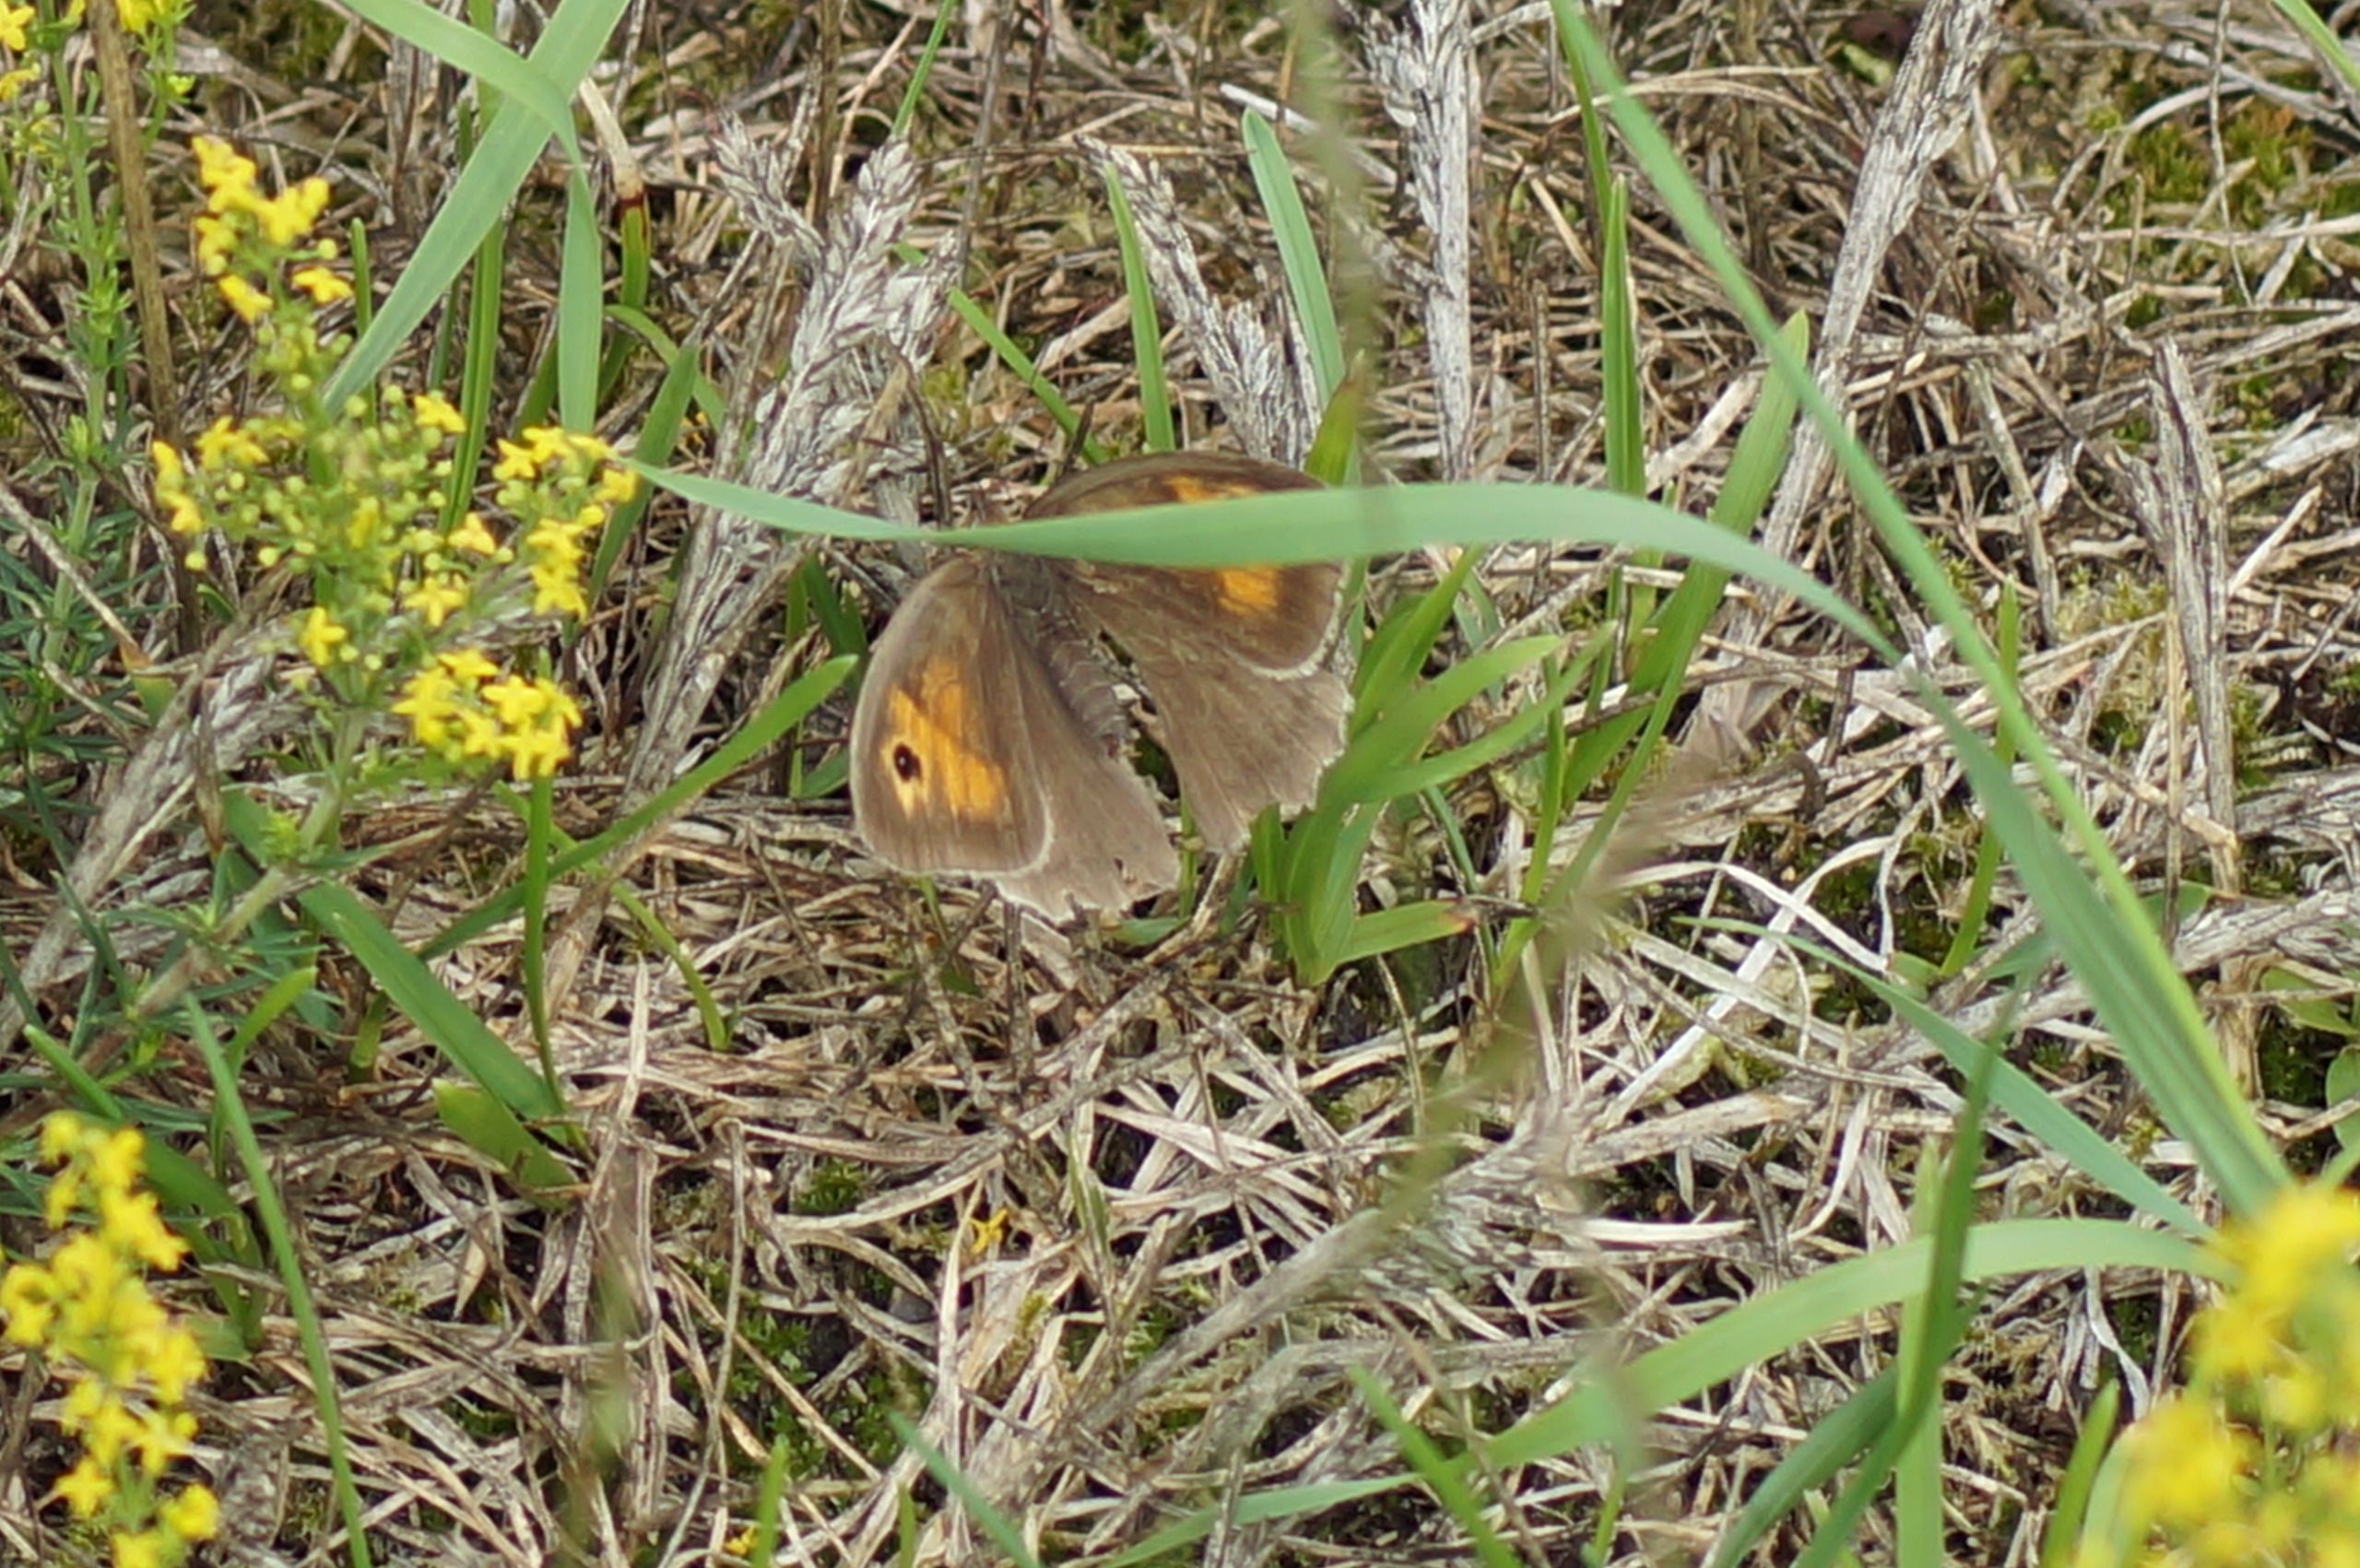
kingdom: Animalia
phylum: Arthropoda
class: Insecta
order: Lepidoptera
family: Nymphalidae
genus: Maniola
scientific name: Maniola jurtina
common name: Græsrandøje
